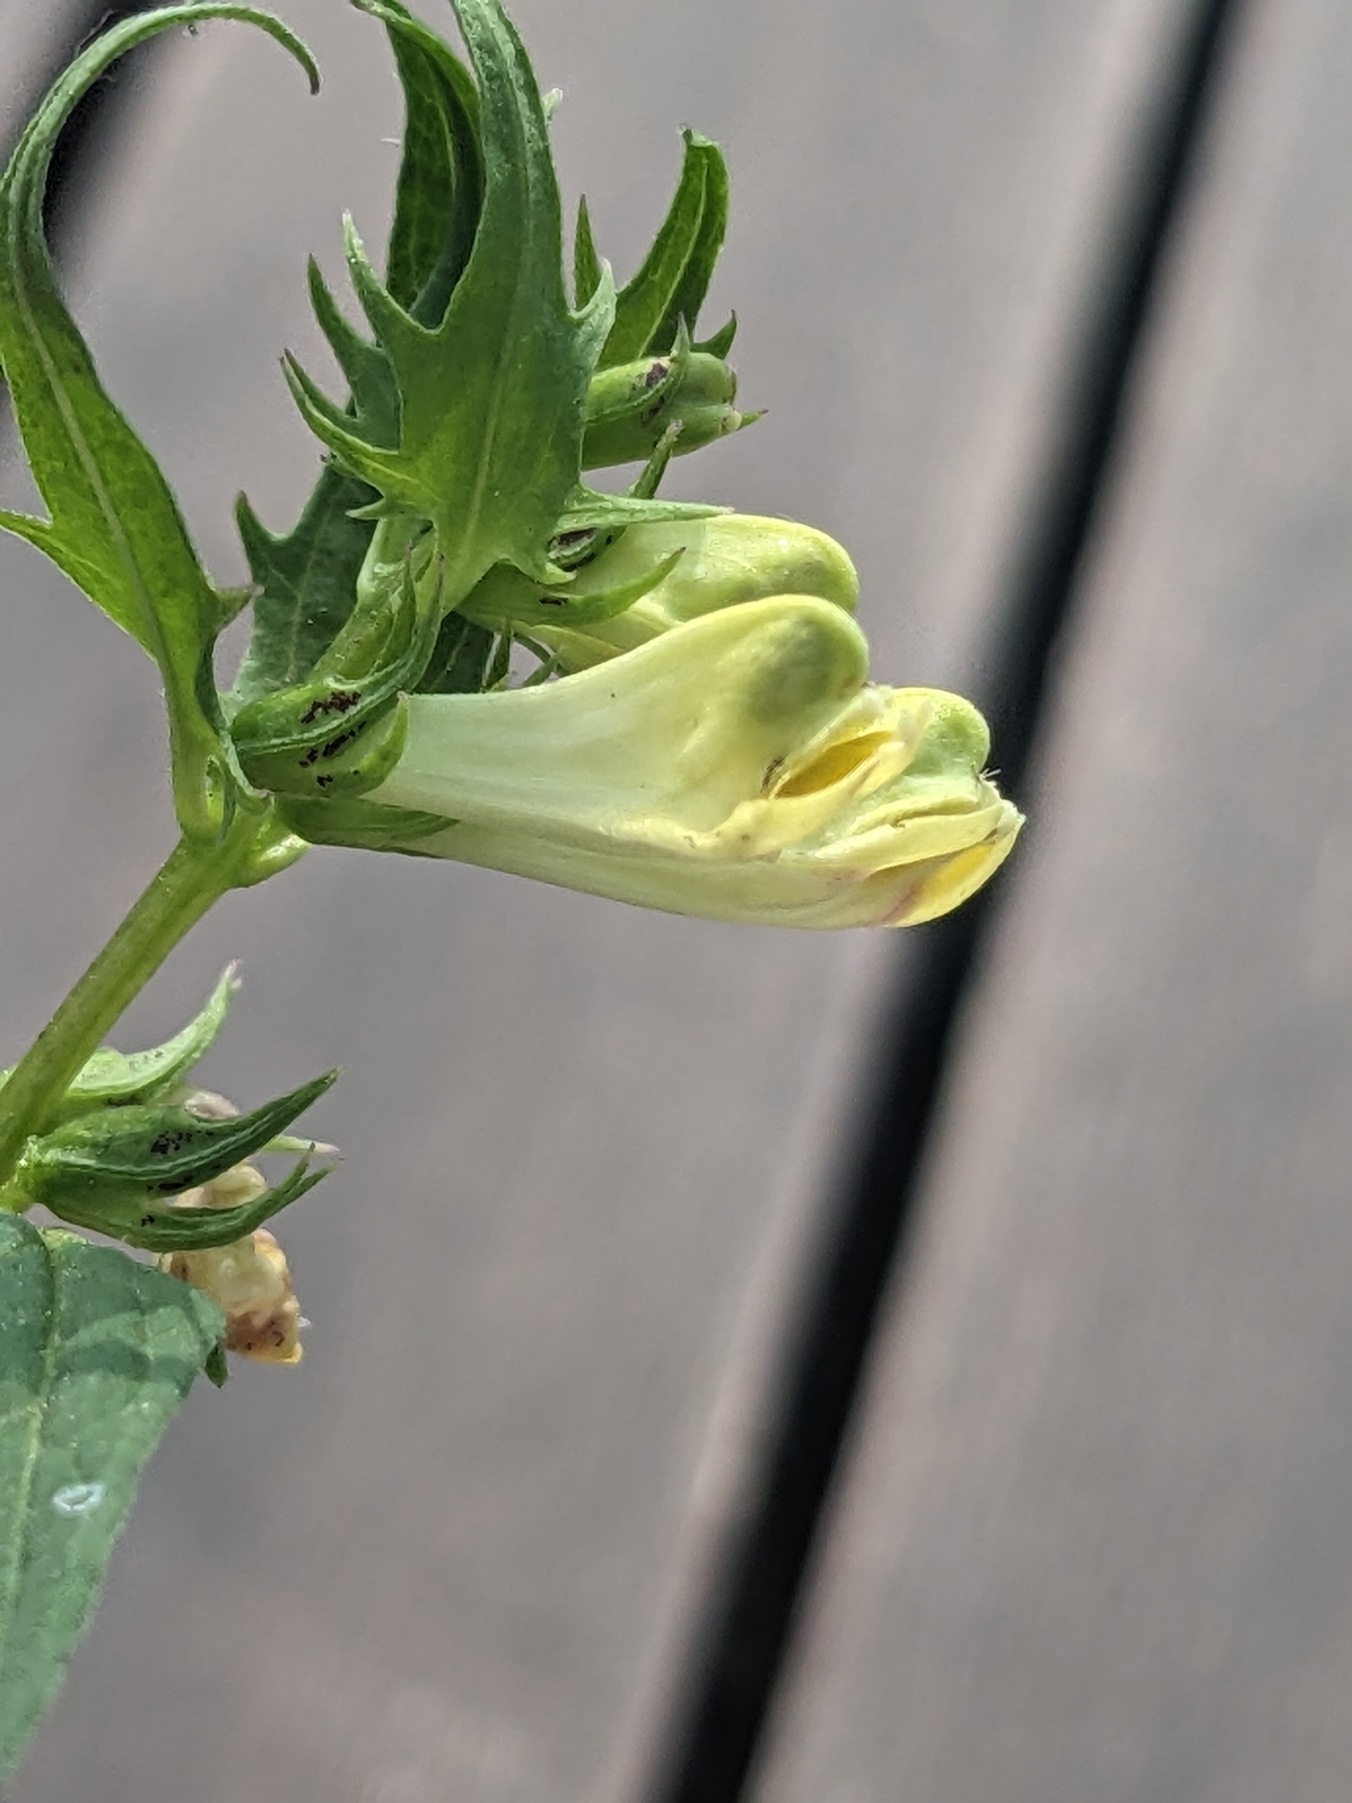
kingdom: Plantae
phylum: Tracheophyta
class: Magnoliopsida
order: Lamiales
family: Orobanchaceae
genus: Melampyrum
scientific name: Melampyrum pratense
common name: Almindelig kohvede
